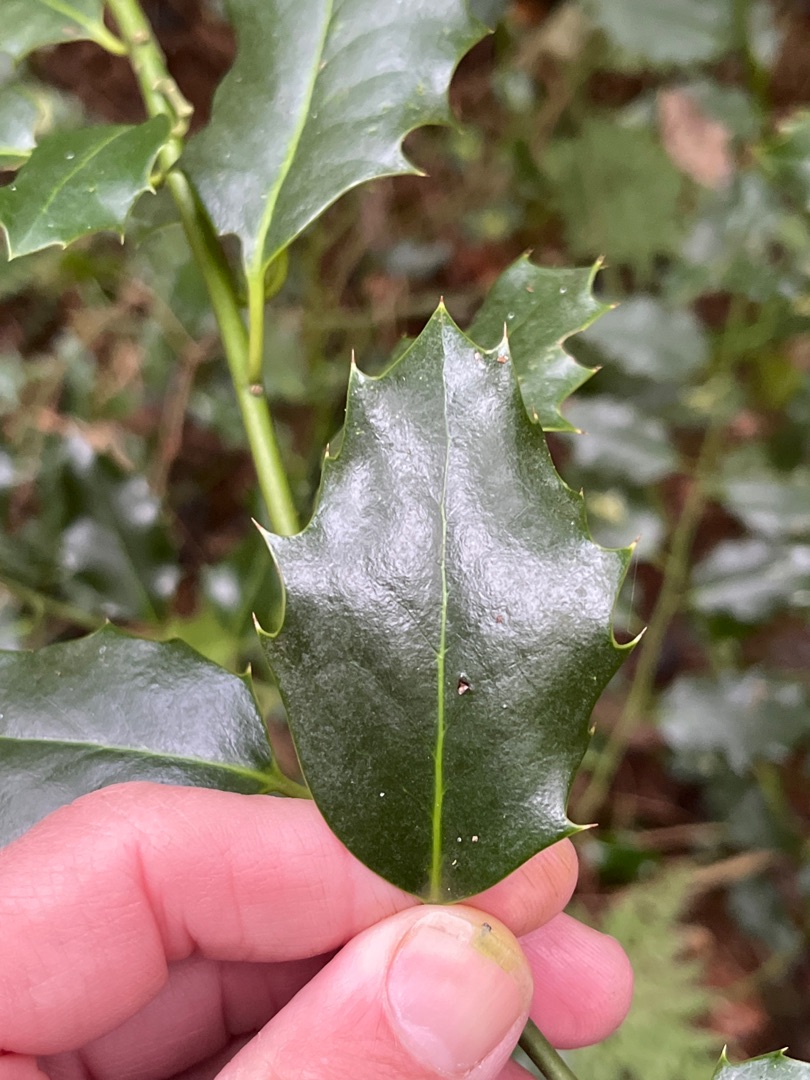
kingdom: Plantae
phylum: Tracheophyta
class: Magnoliopsida
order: Aquifoliales
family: Aquifoliaceae
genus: Ilex
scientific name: Ilex aquifolium
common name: Kristtorn
